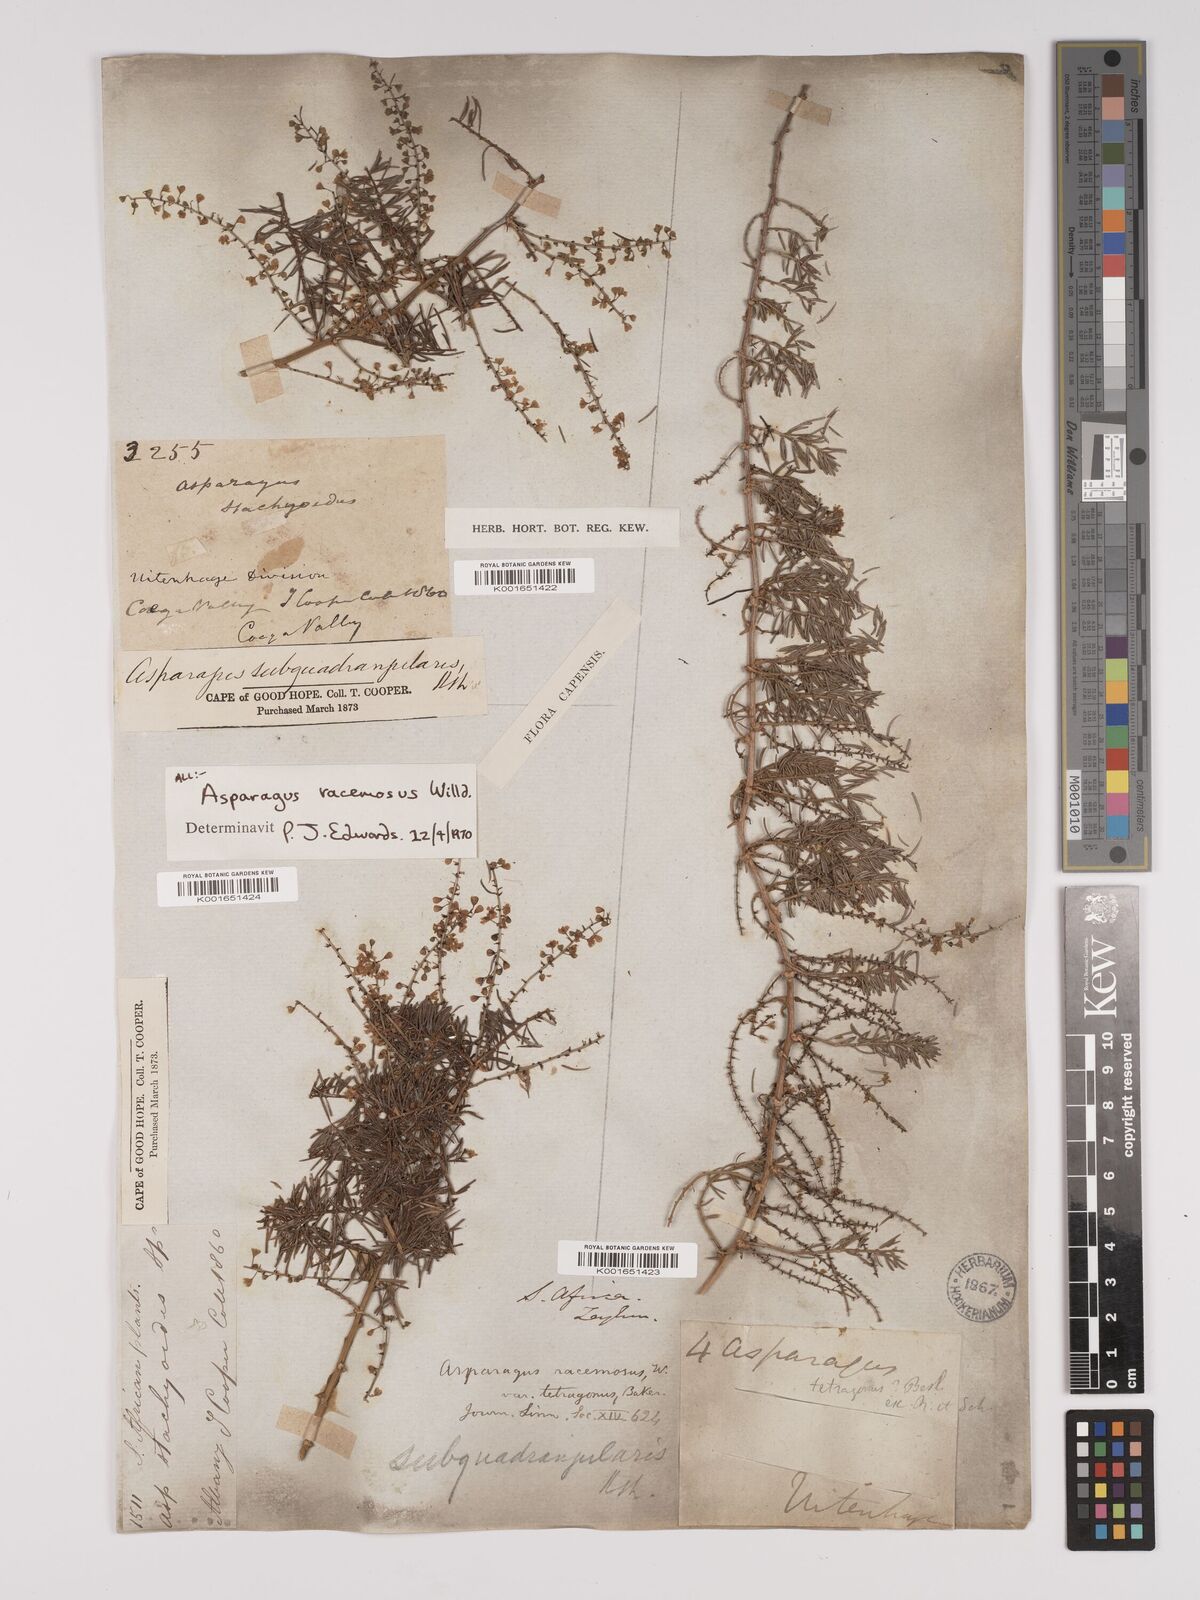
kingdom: Plantae
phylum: Tracheophyta
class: Liliopsida
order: Asparagales
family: Asparagaceae
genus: Asparagus
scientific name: Asparagus racemosus
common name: Asparagus-fern
